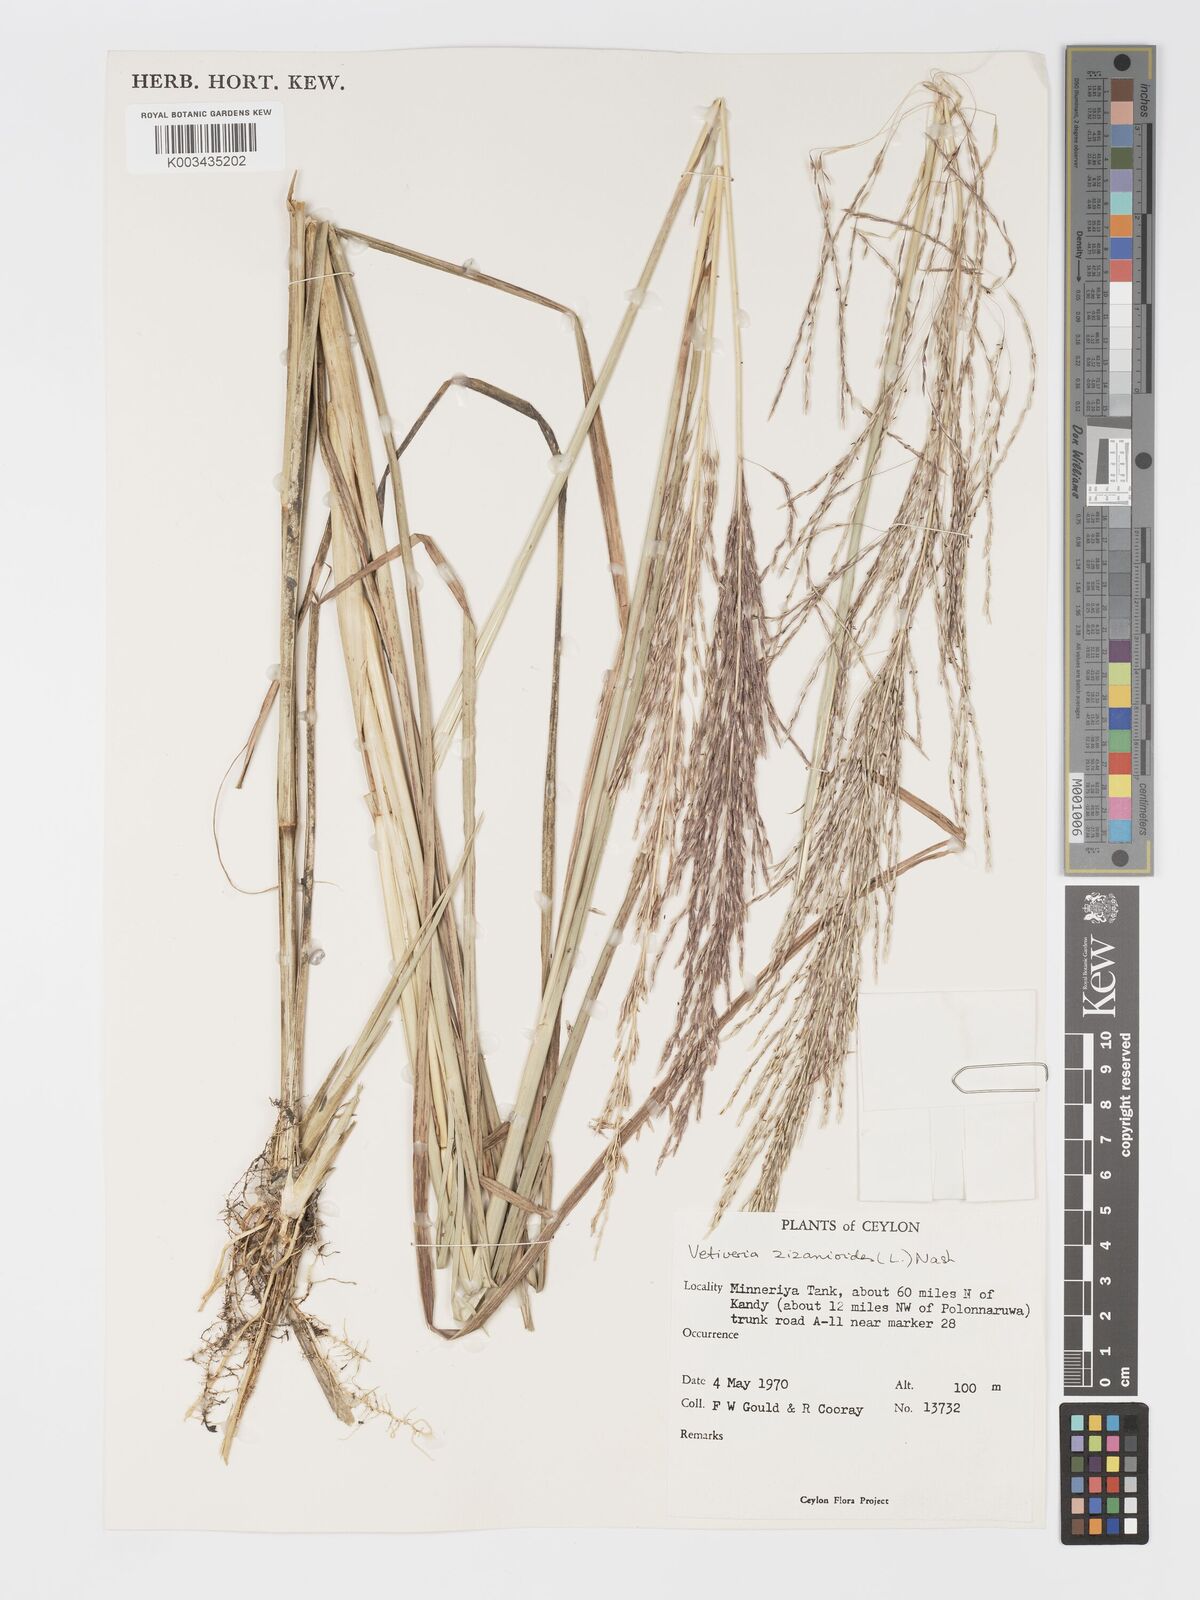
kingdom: Plantae
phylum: Tracheophyta
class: Liliopsida
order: Poales
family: Poaceae
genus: Chrysopogon
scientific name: Chrysopogon zizanioides
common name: False beardgrass
